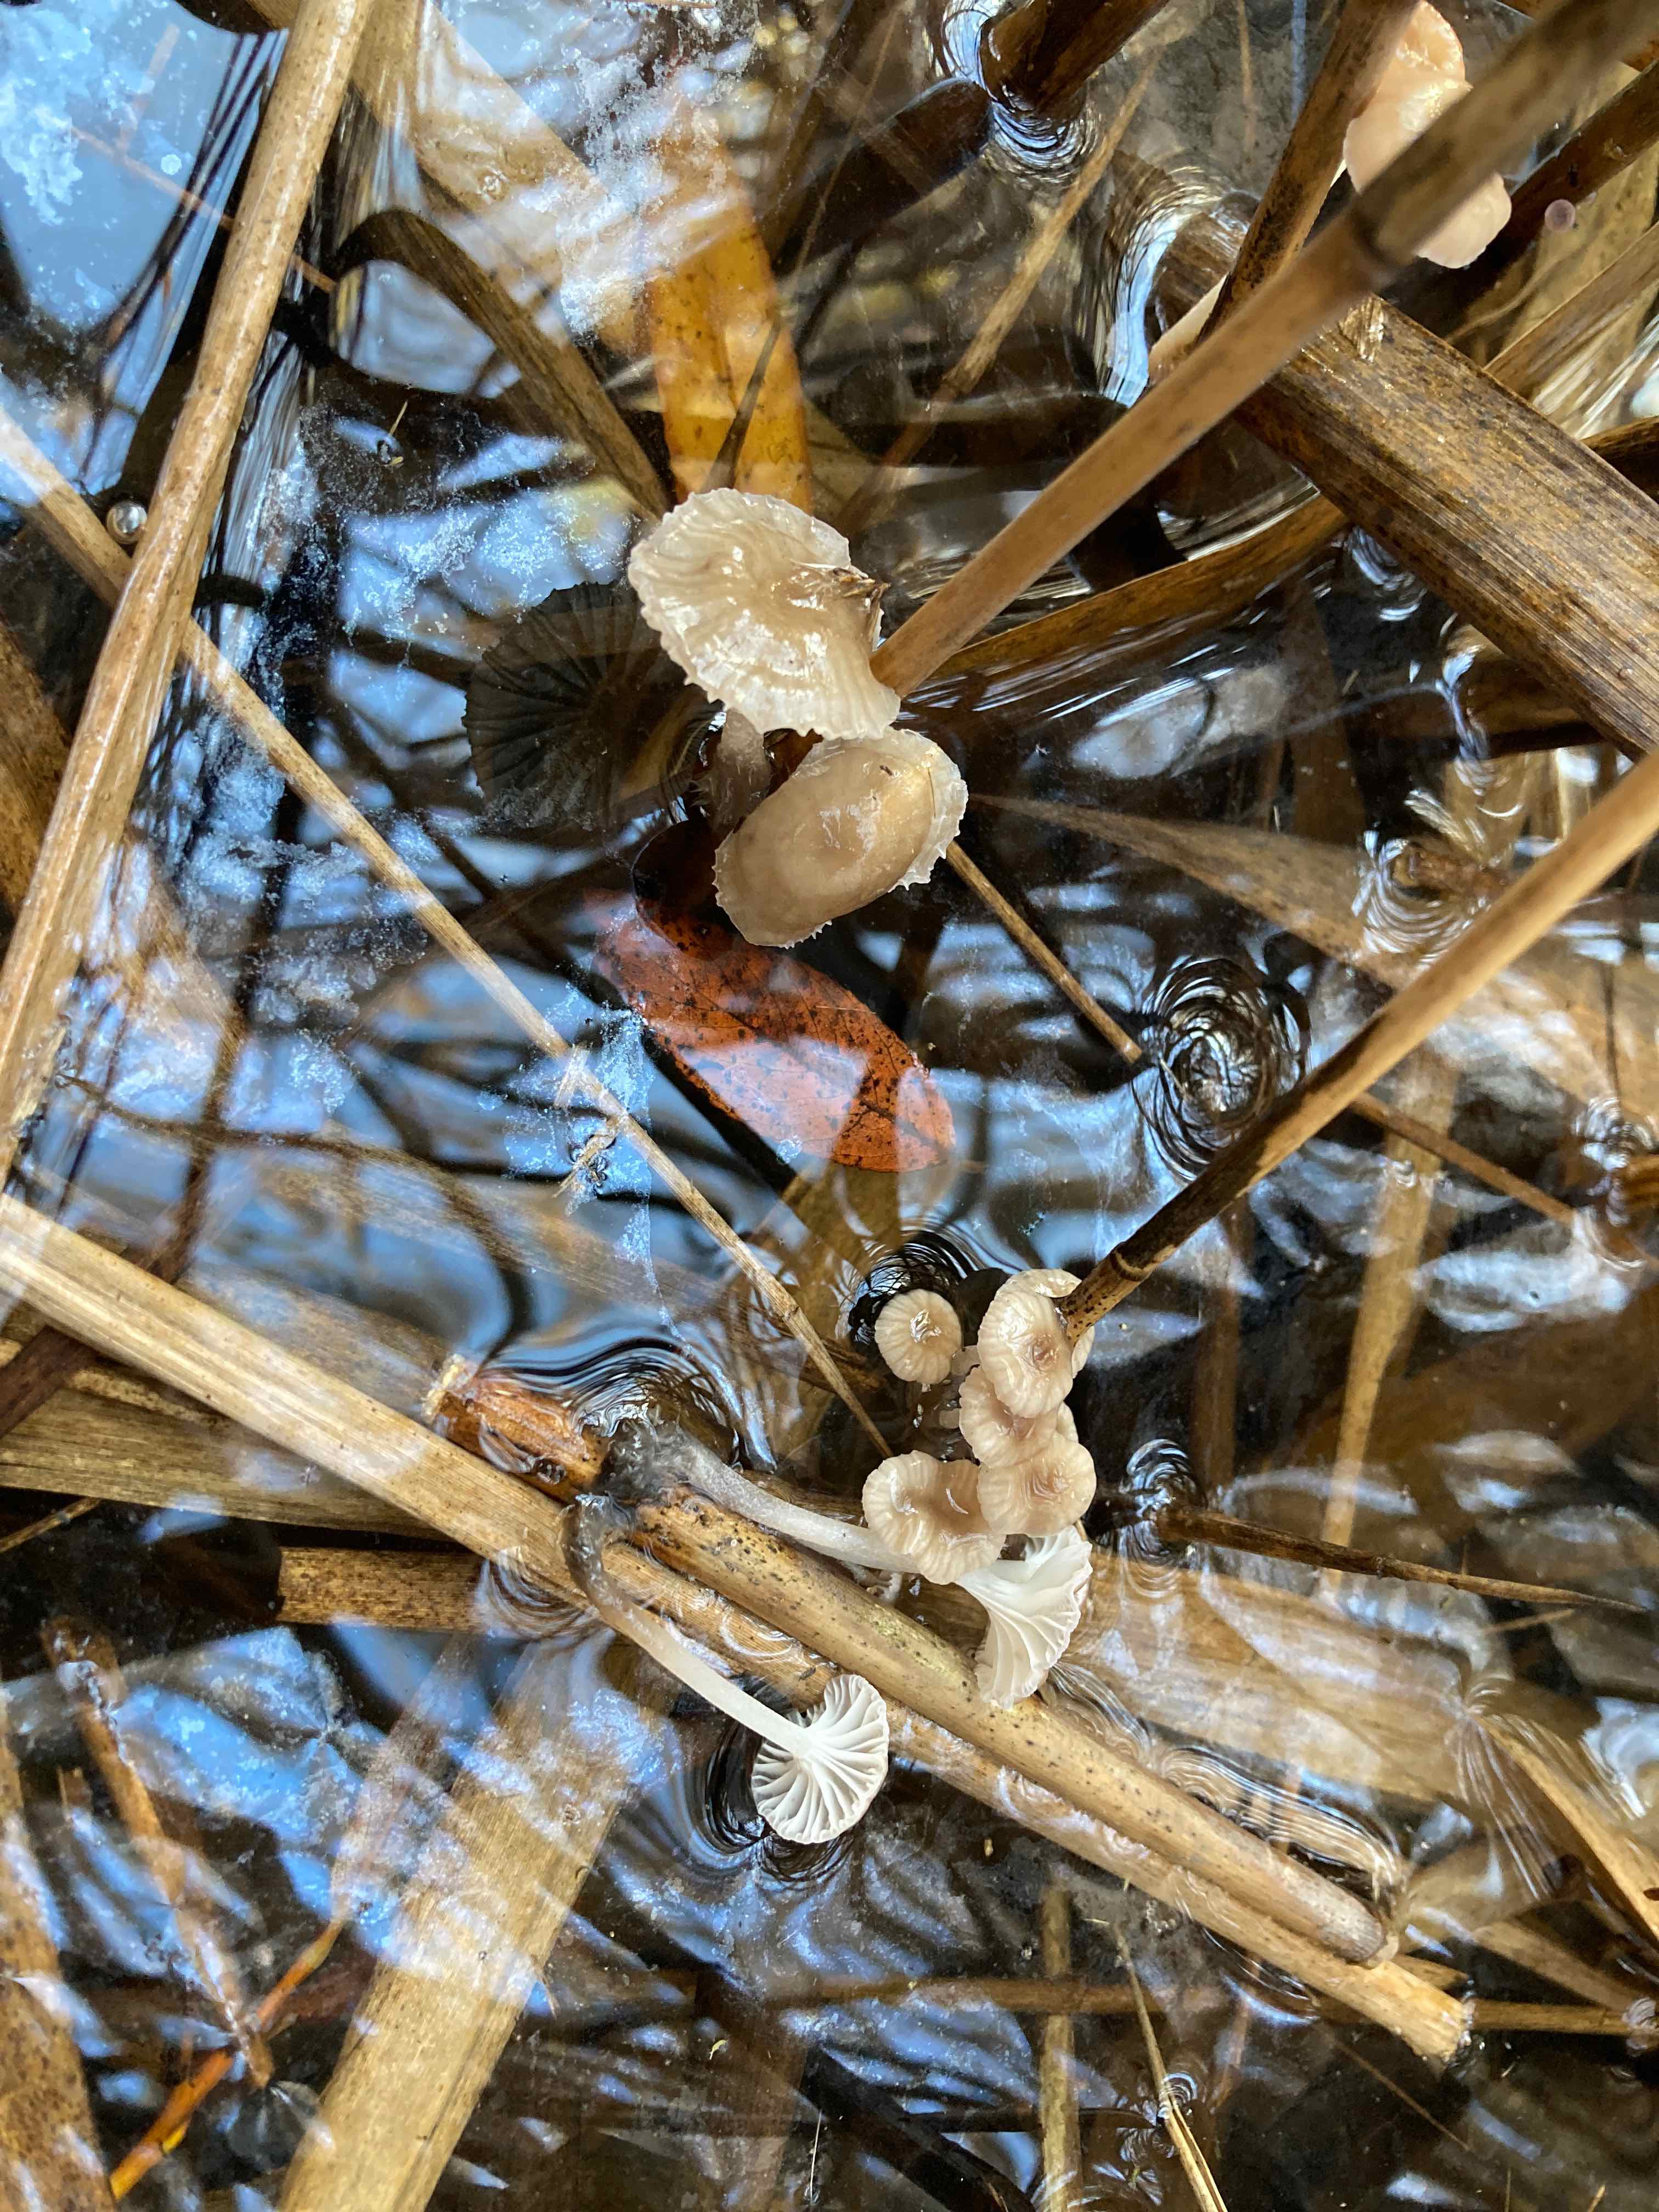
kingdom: Fungi
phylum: Basidiomycota
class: Agaricomycetes
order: Agaricales
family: Mycenaceae
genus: Mycena
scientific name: Mycena belliae
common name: tagrørs-huesvamp
